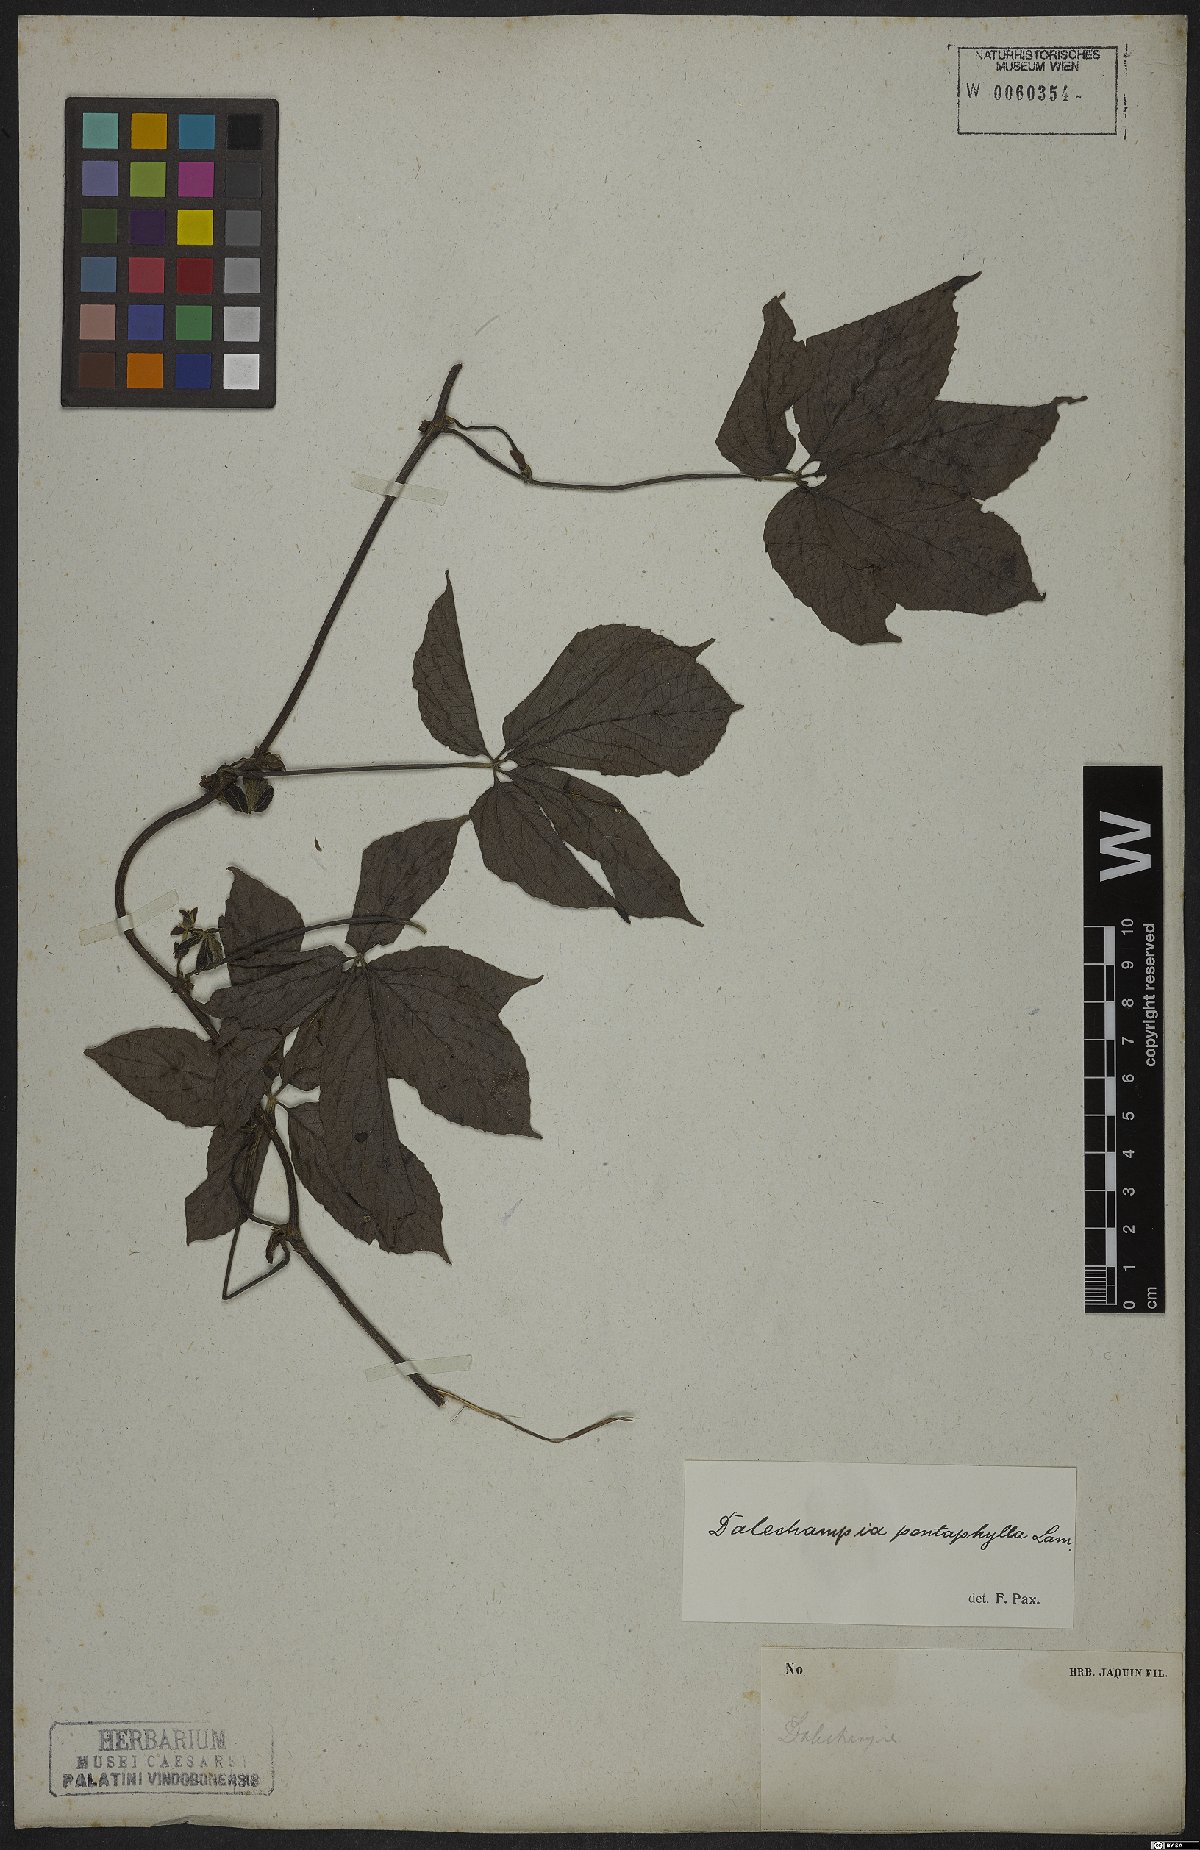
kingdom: Plantae
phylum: Tracheophyta
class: Magnoliopsida
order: Malpighiales
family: Euphorbiaceae
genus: Dalechampia
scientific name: Dalechampia pentaphylla
